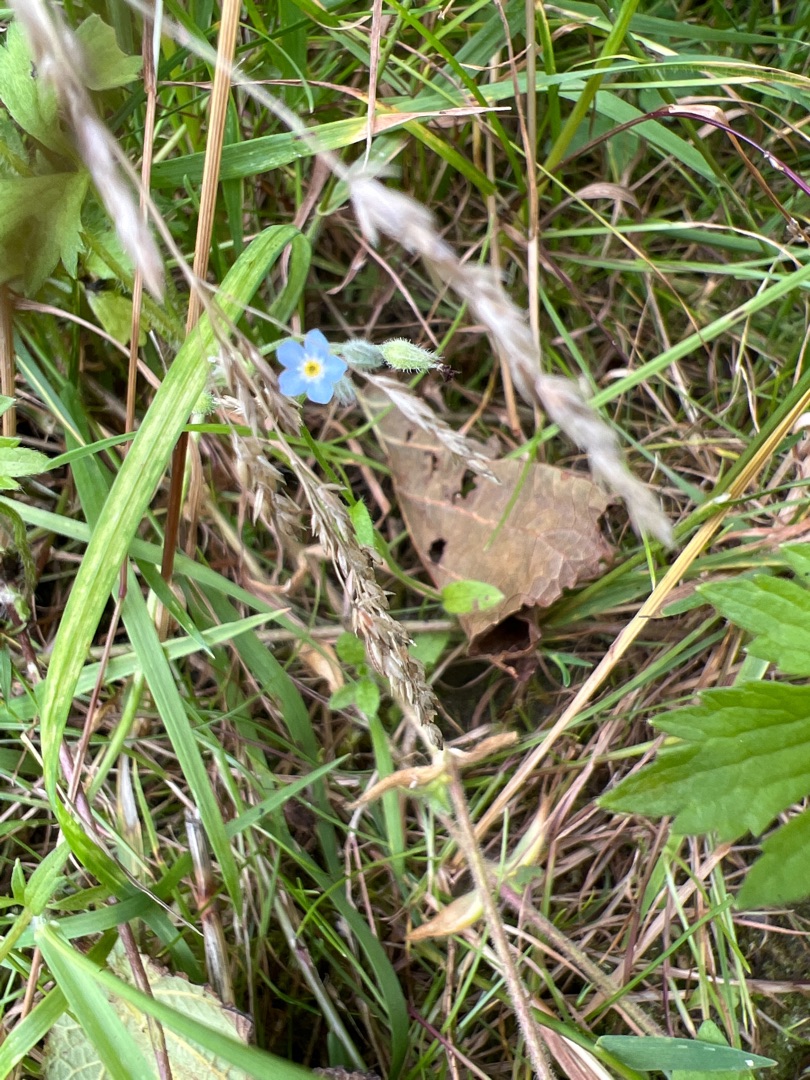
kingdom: Plantae
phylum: Tracheophyta
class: Magnoliopsida
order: Boraginales
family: Boraginaceae
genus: Myosotis
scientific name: Myosotis arvensis
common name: Mark-forglemmigej
